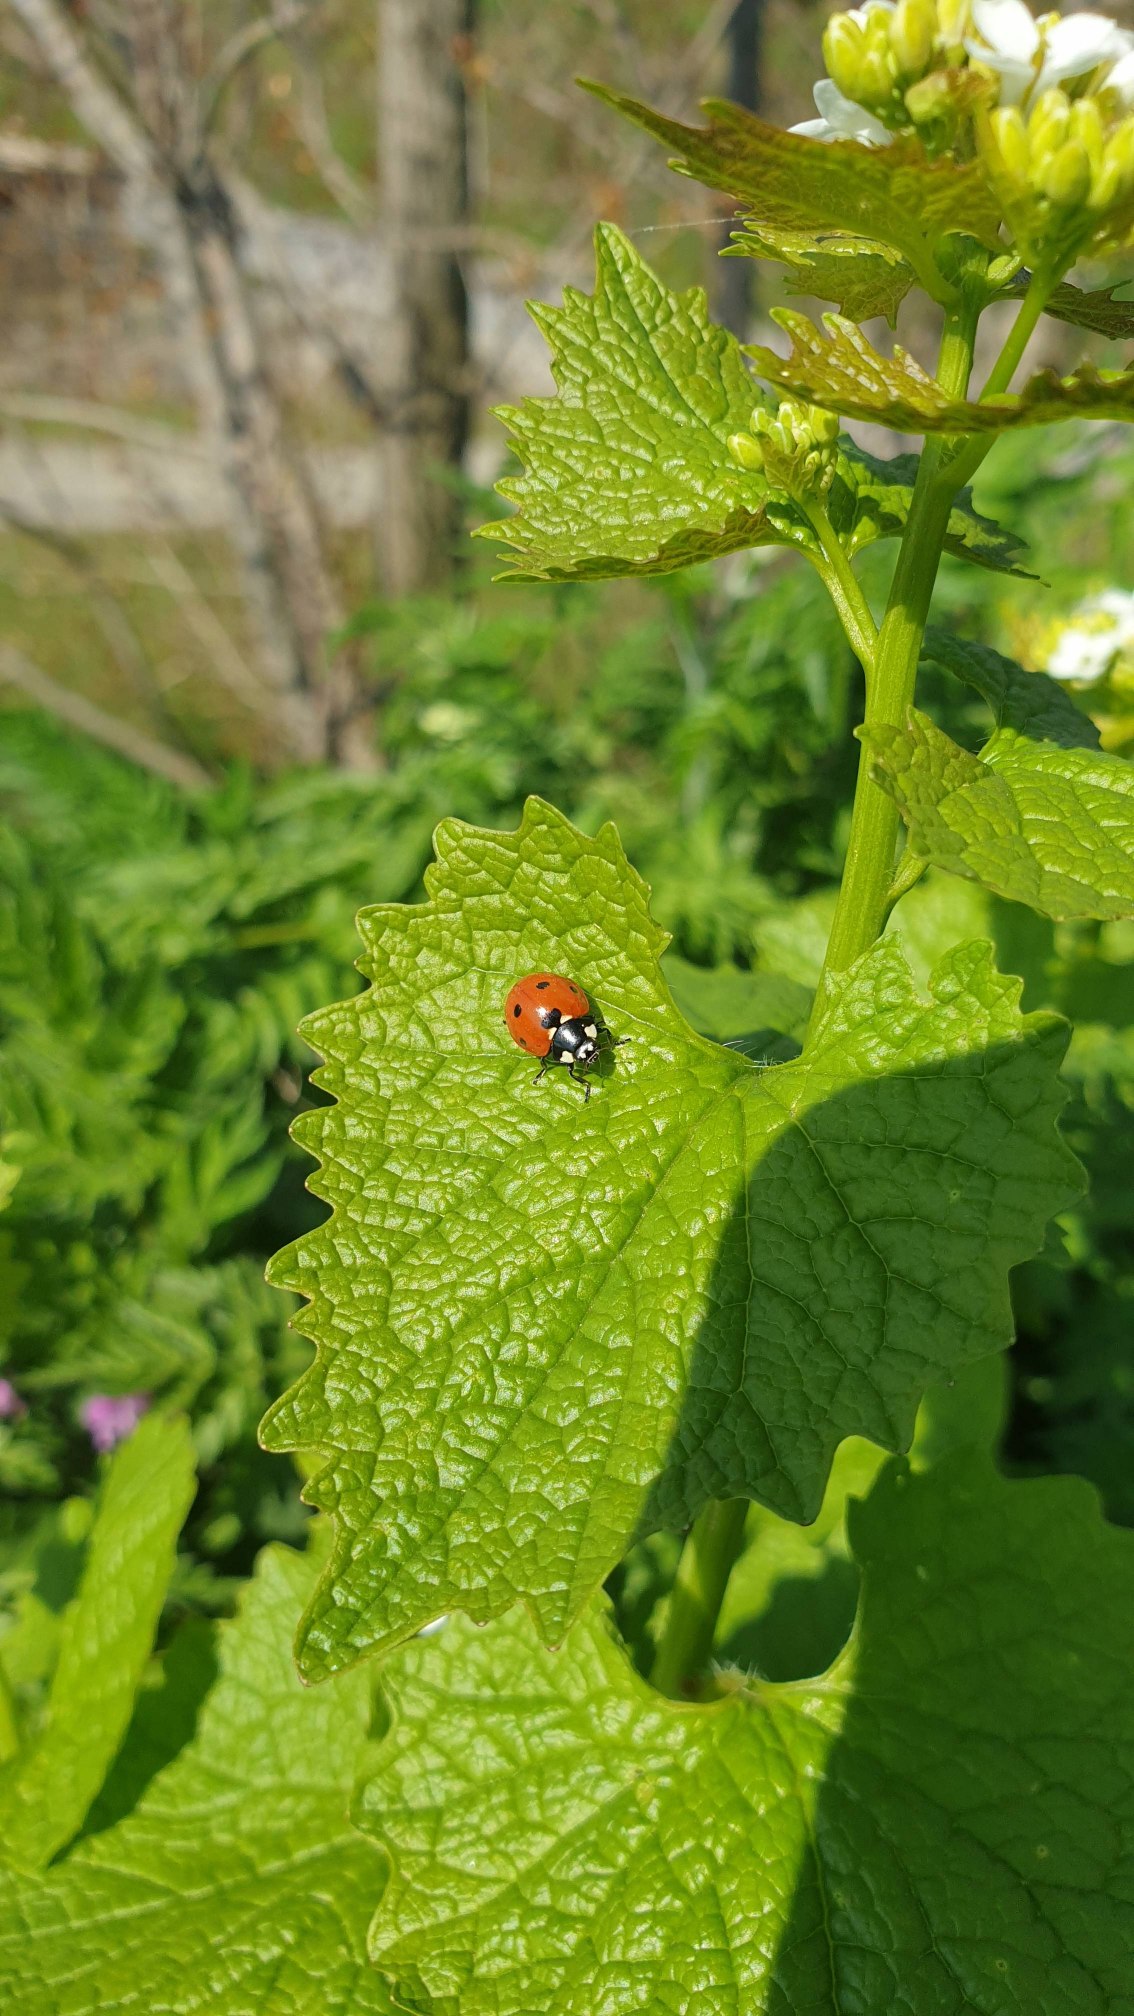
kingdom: Animalia
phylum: Arthropoda
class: Insecta
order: Coleoptera
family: Coccinellidae
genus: Coccinella
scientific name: Coccinella septempunctata
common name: Syvplettet mariehøne
